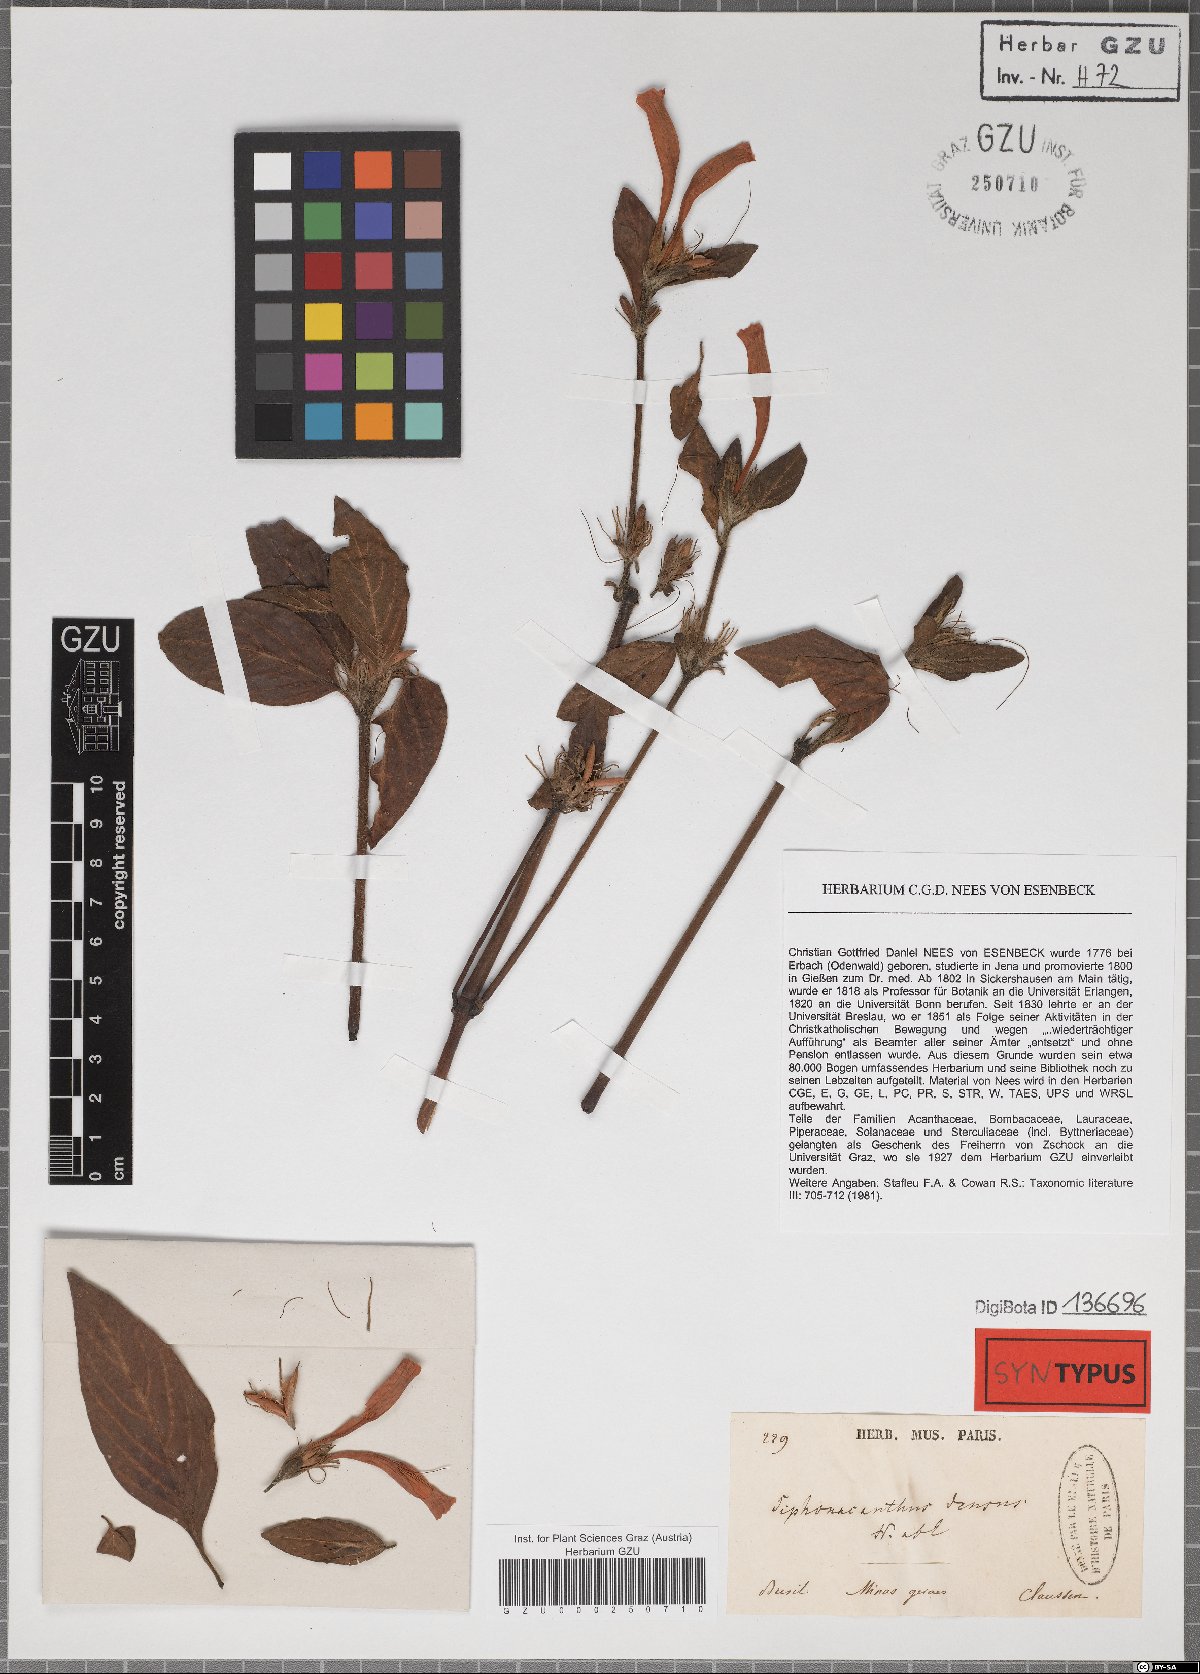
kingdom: Plantae
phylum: Tracheophyta
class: Magnoliopsida
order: Lamiales
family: Acanthaceae
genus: Ruellia
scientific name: Ruellia densa
